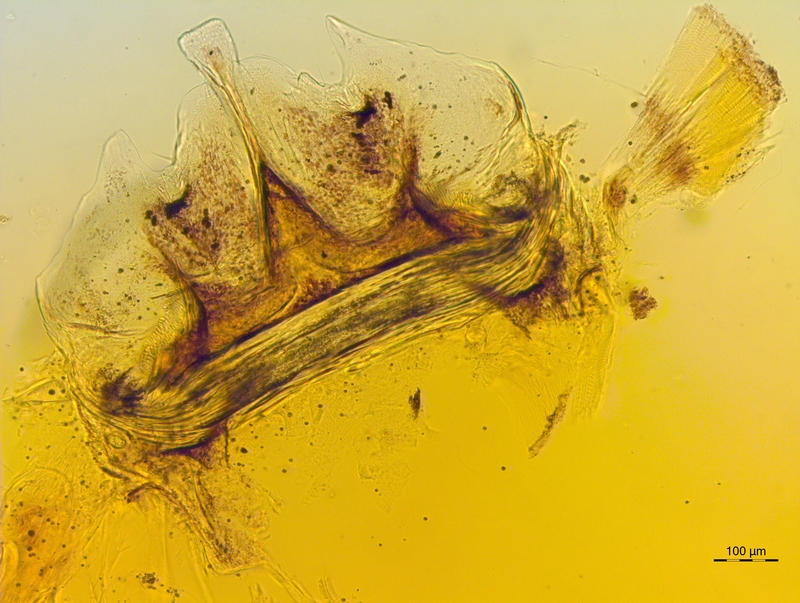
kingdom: Animalia
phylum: Arthropoda
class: Diplopoda
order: Chordeumatida
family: Craspedosomatidae
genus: Craspedosoma
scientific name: Craspedosoma taurinorum
